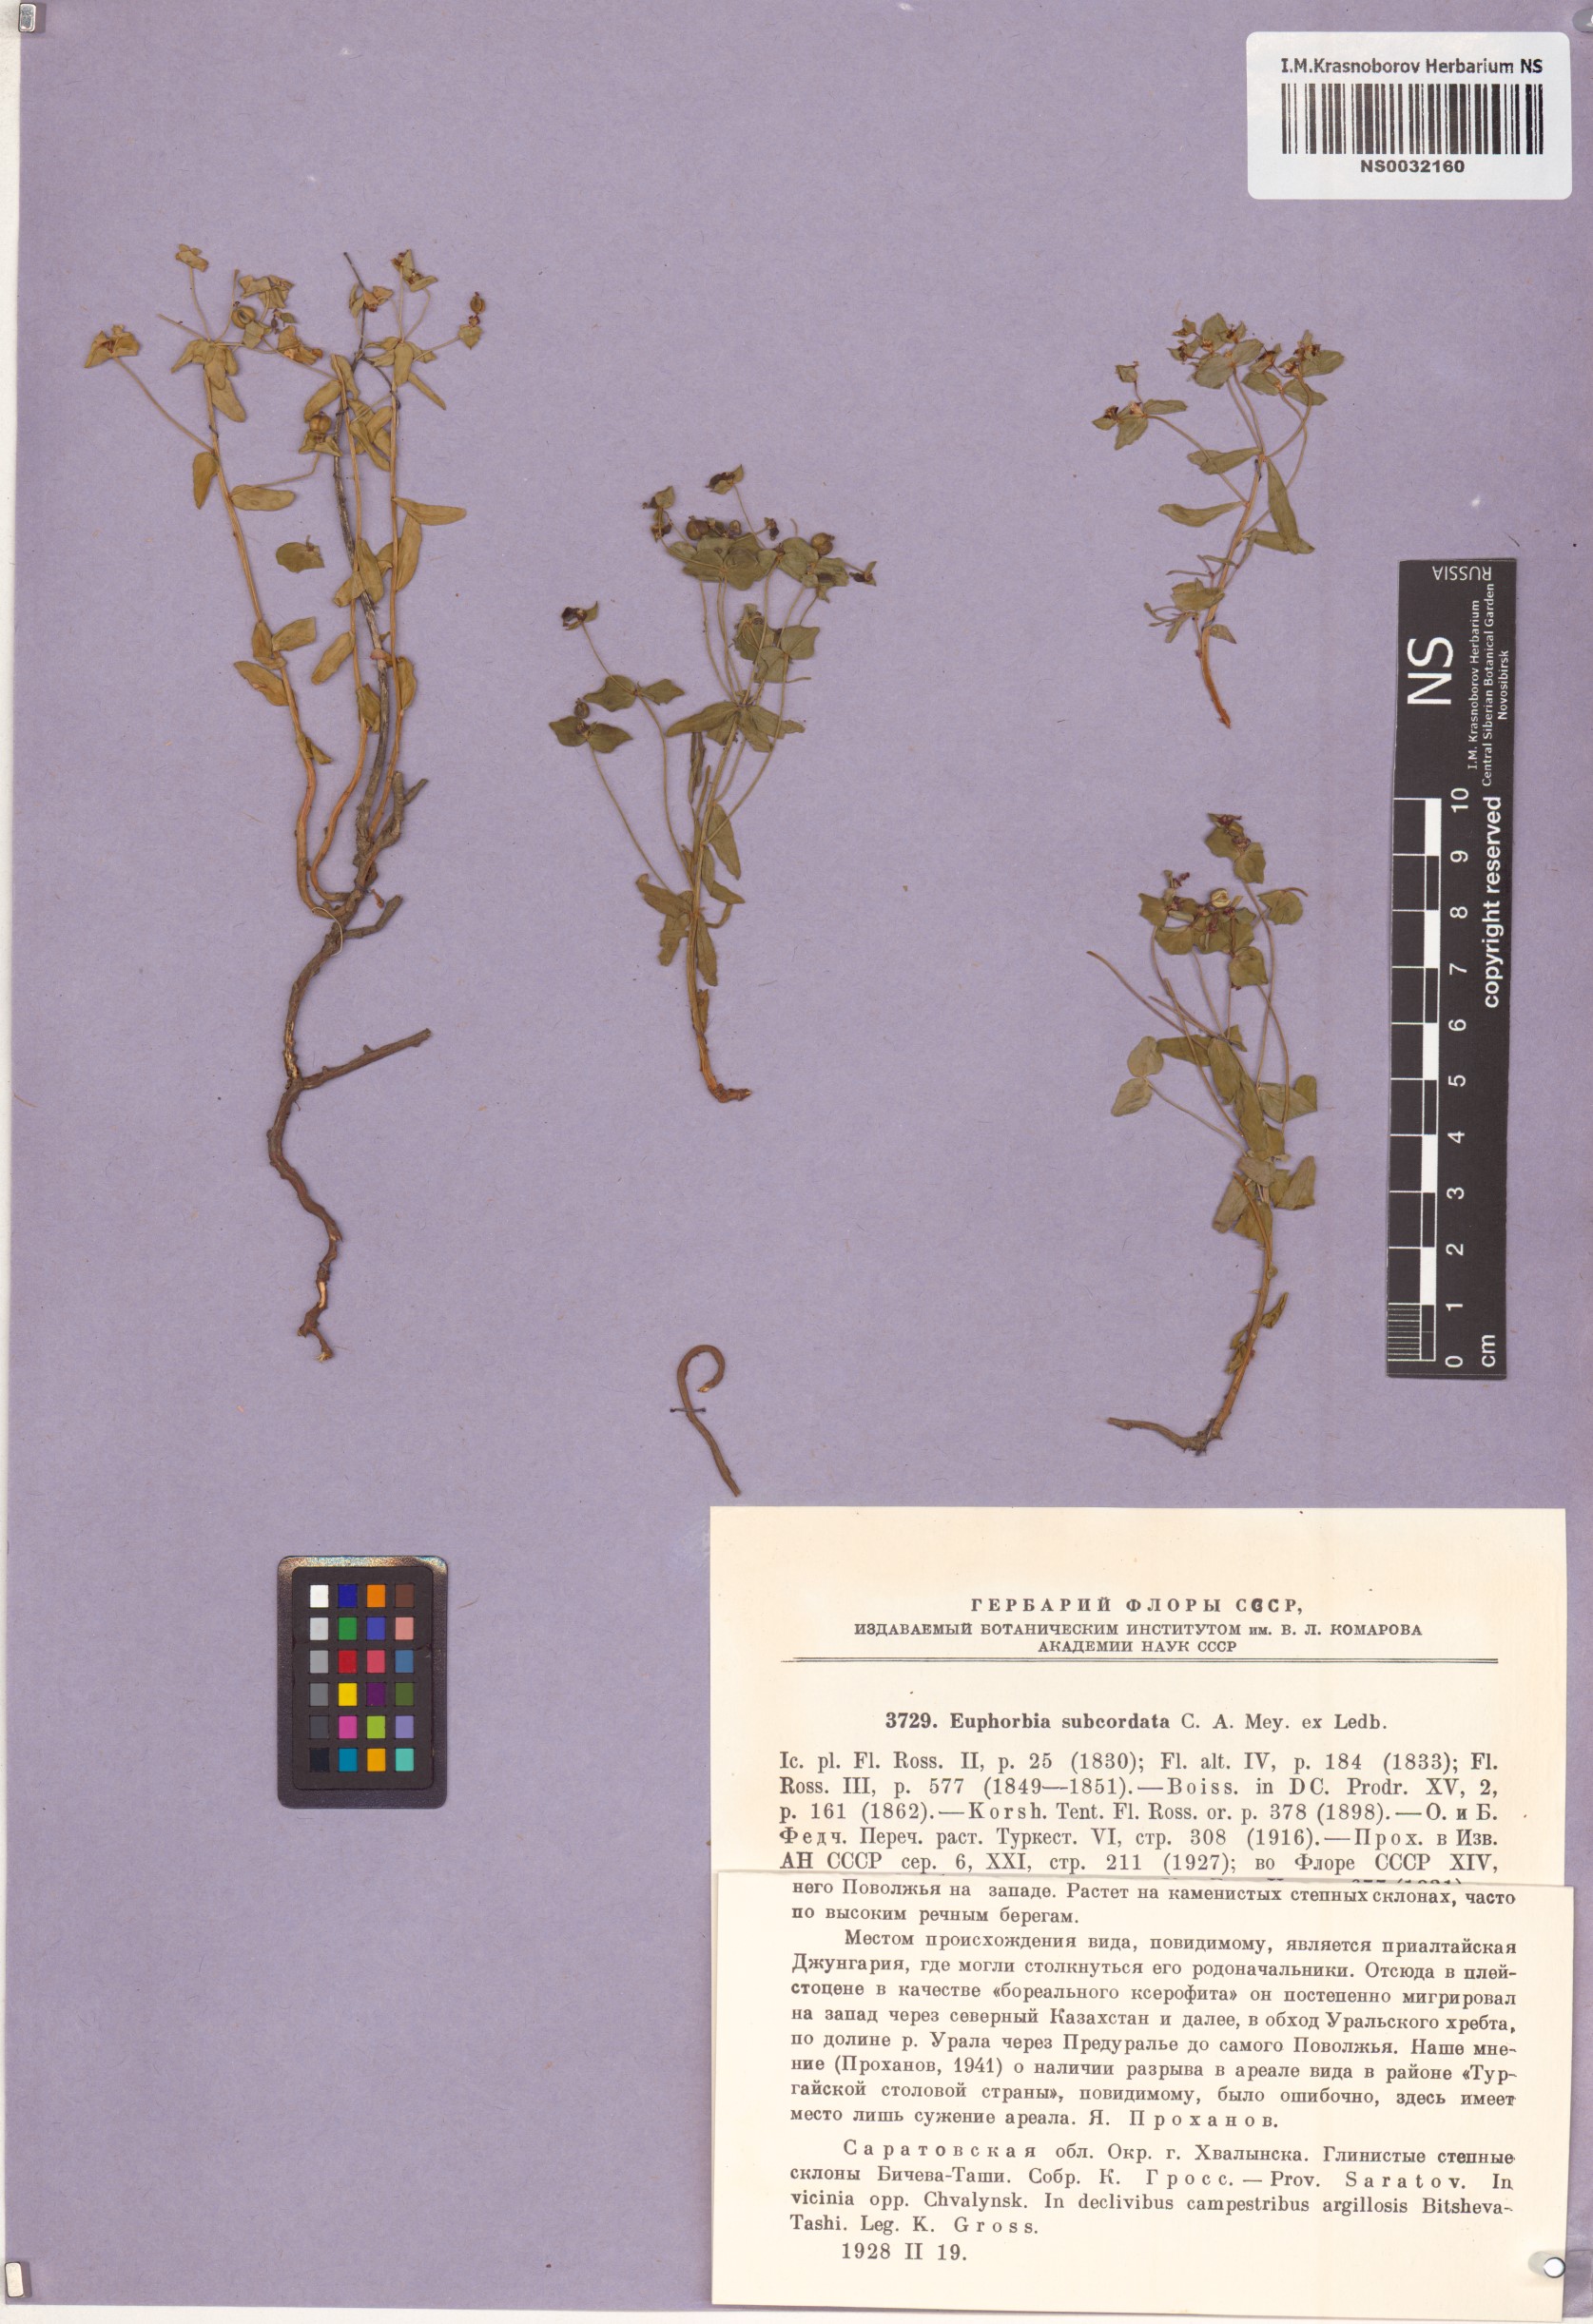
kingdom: Plantae
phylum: Tracheophyta
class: Magnoliopsida
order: Malpighiales
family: Euphorbiaceae
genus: Euphorbia
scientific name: Euphorbia subcordata
